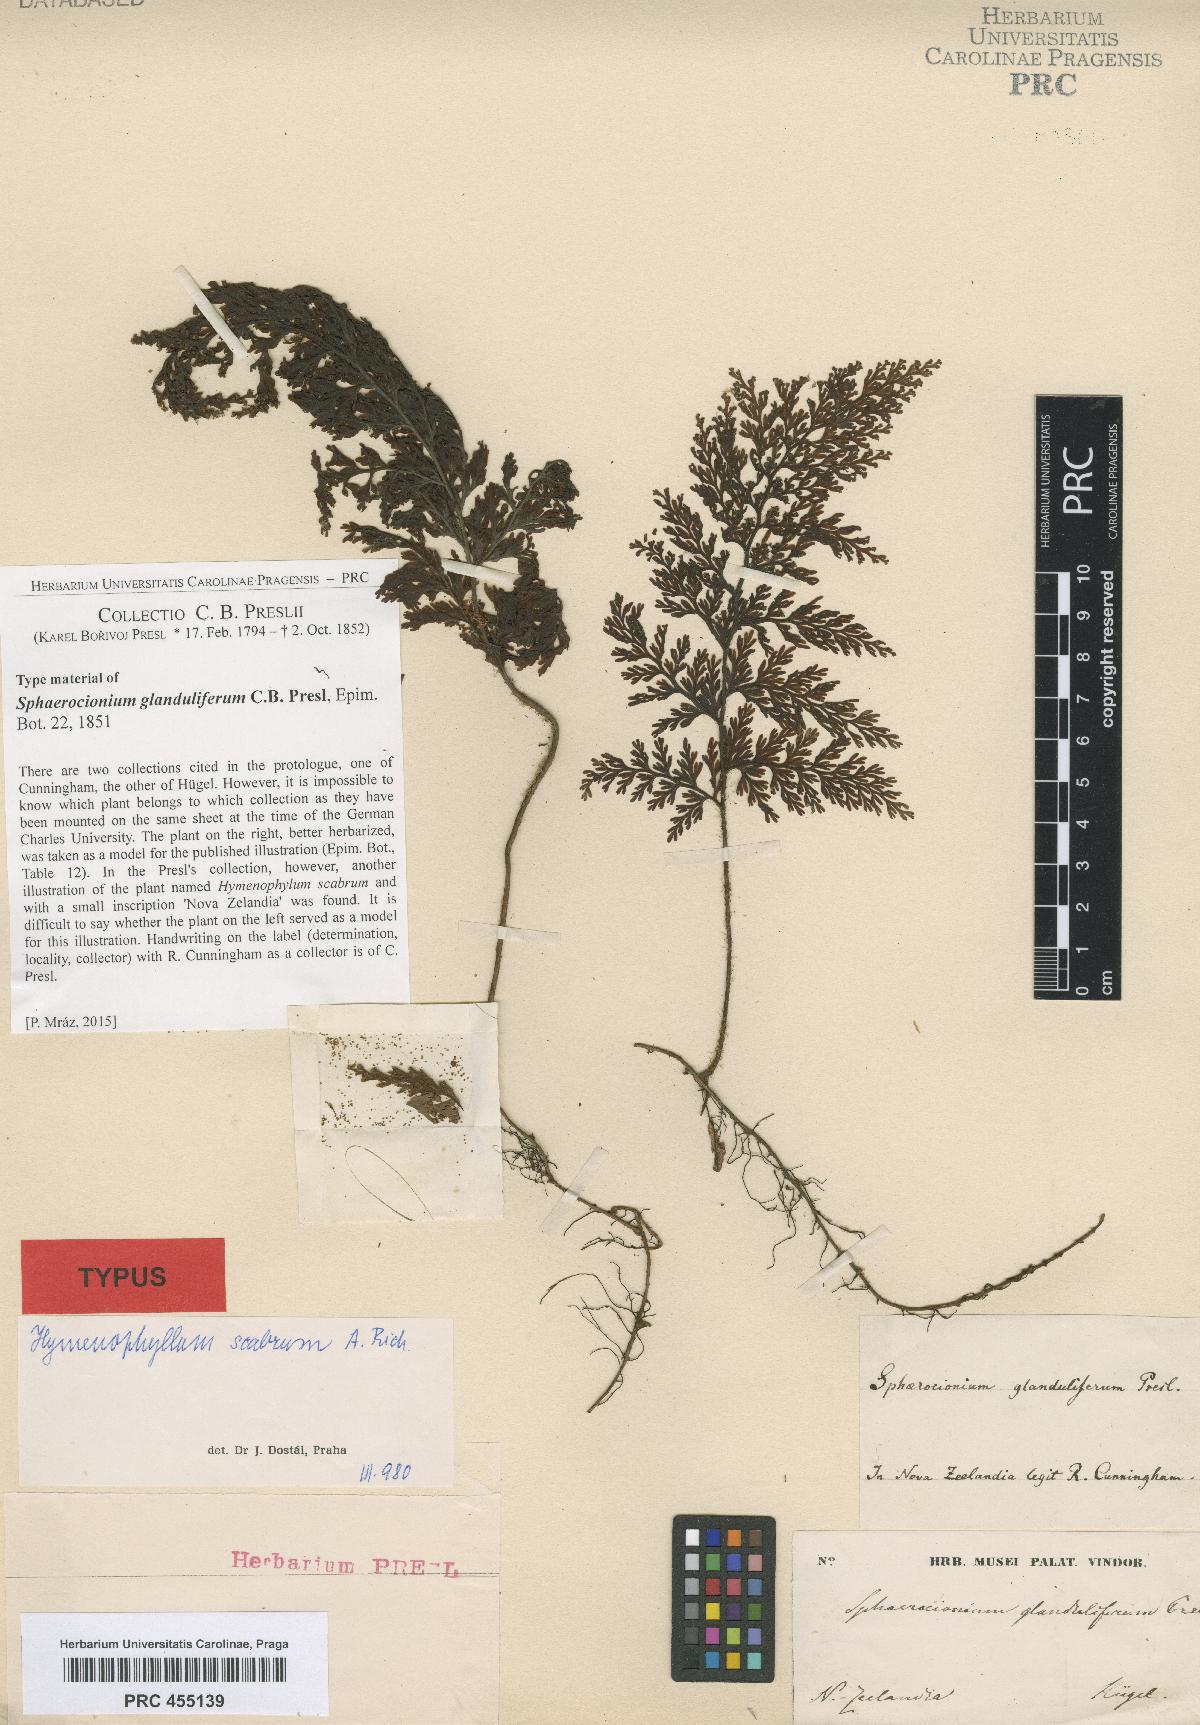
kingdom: Plantae
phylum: Tracheophyta
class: Polypodiopsida
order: Hymenophyllales
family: Hymenophyllaceae
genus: Hymenophyllum
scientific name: Hymenophyllum
